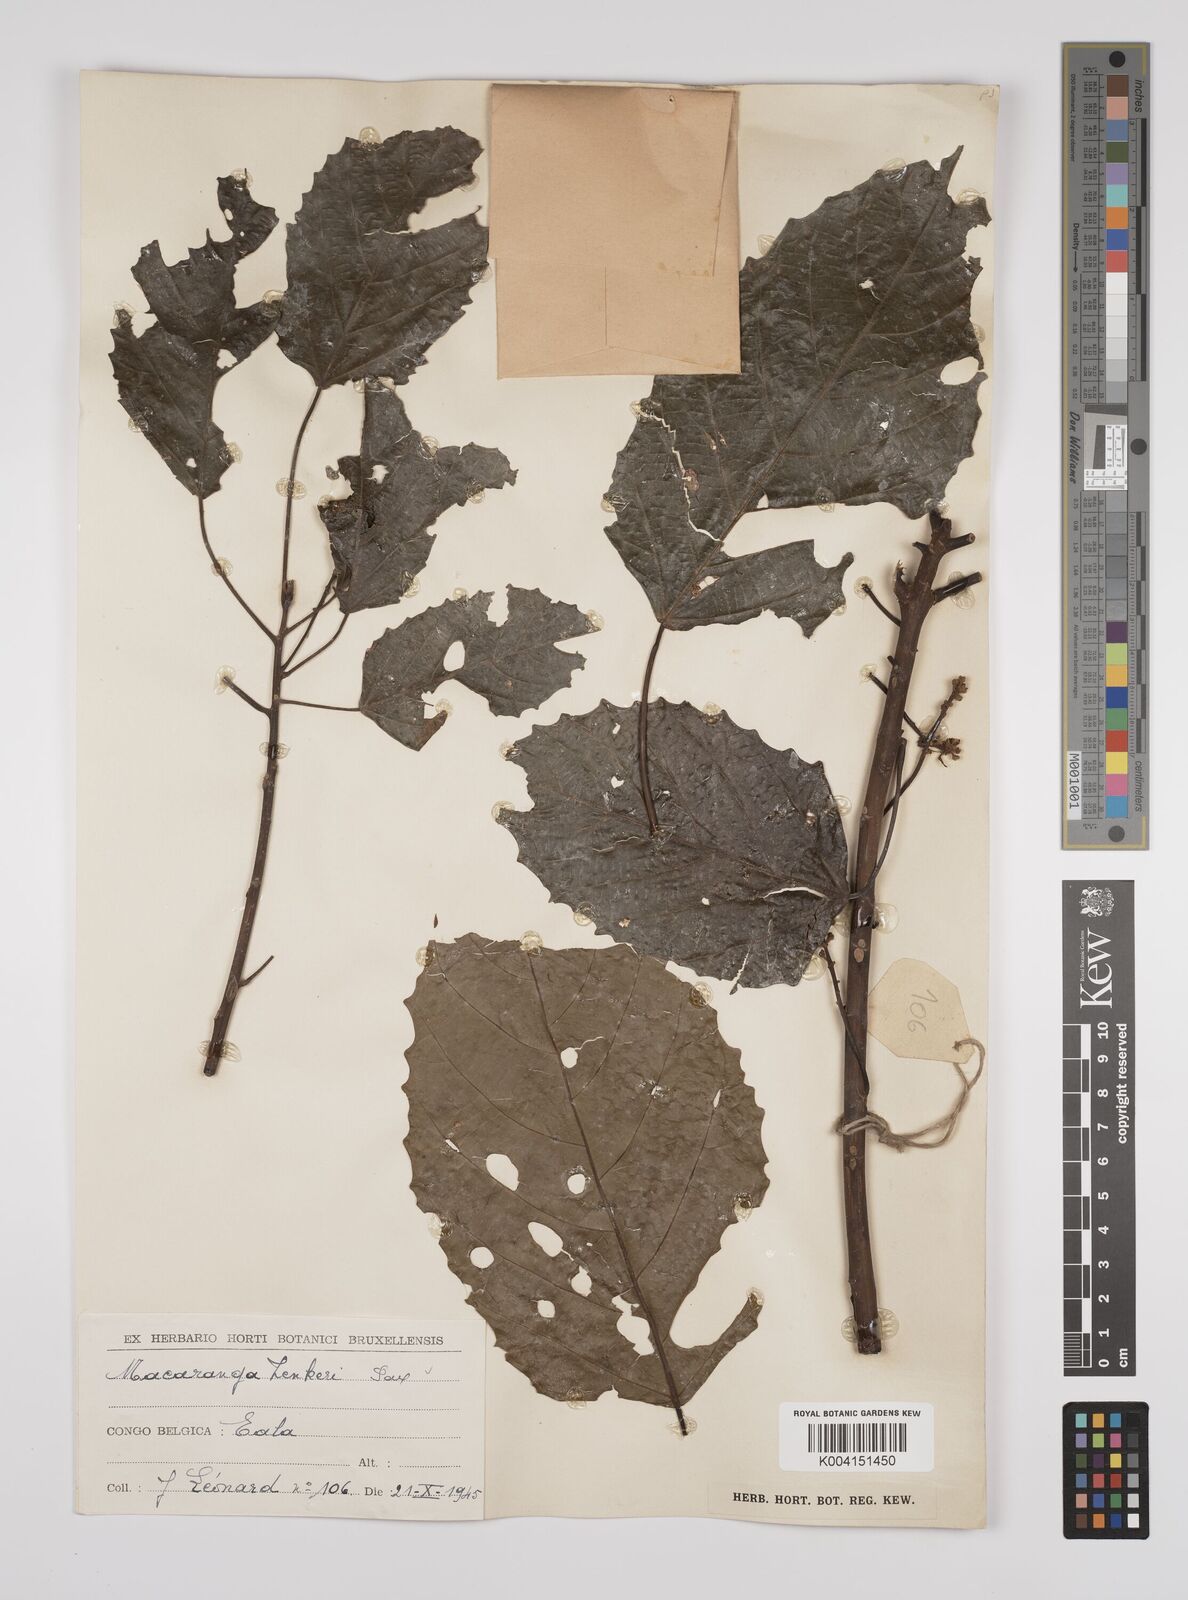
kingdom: Plantae
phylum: Tracheophyta
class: Magnoliopsida
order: Malpighiales
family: Euphorbiaceae
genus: Macaranga
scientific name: Macaranga monandra
